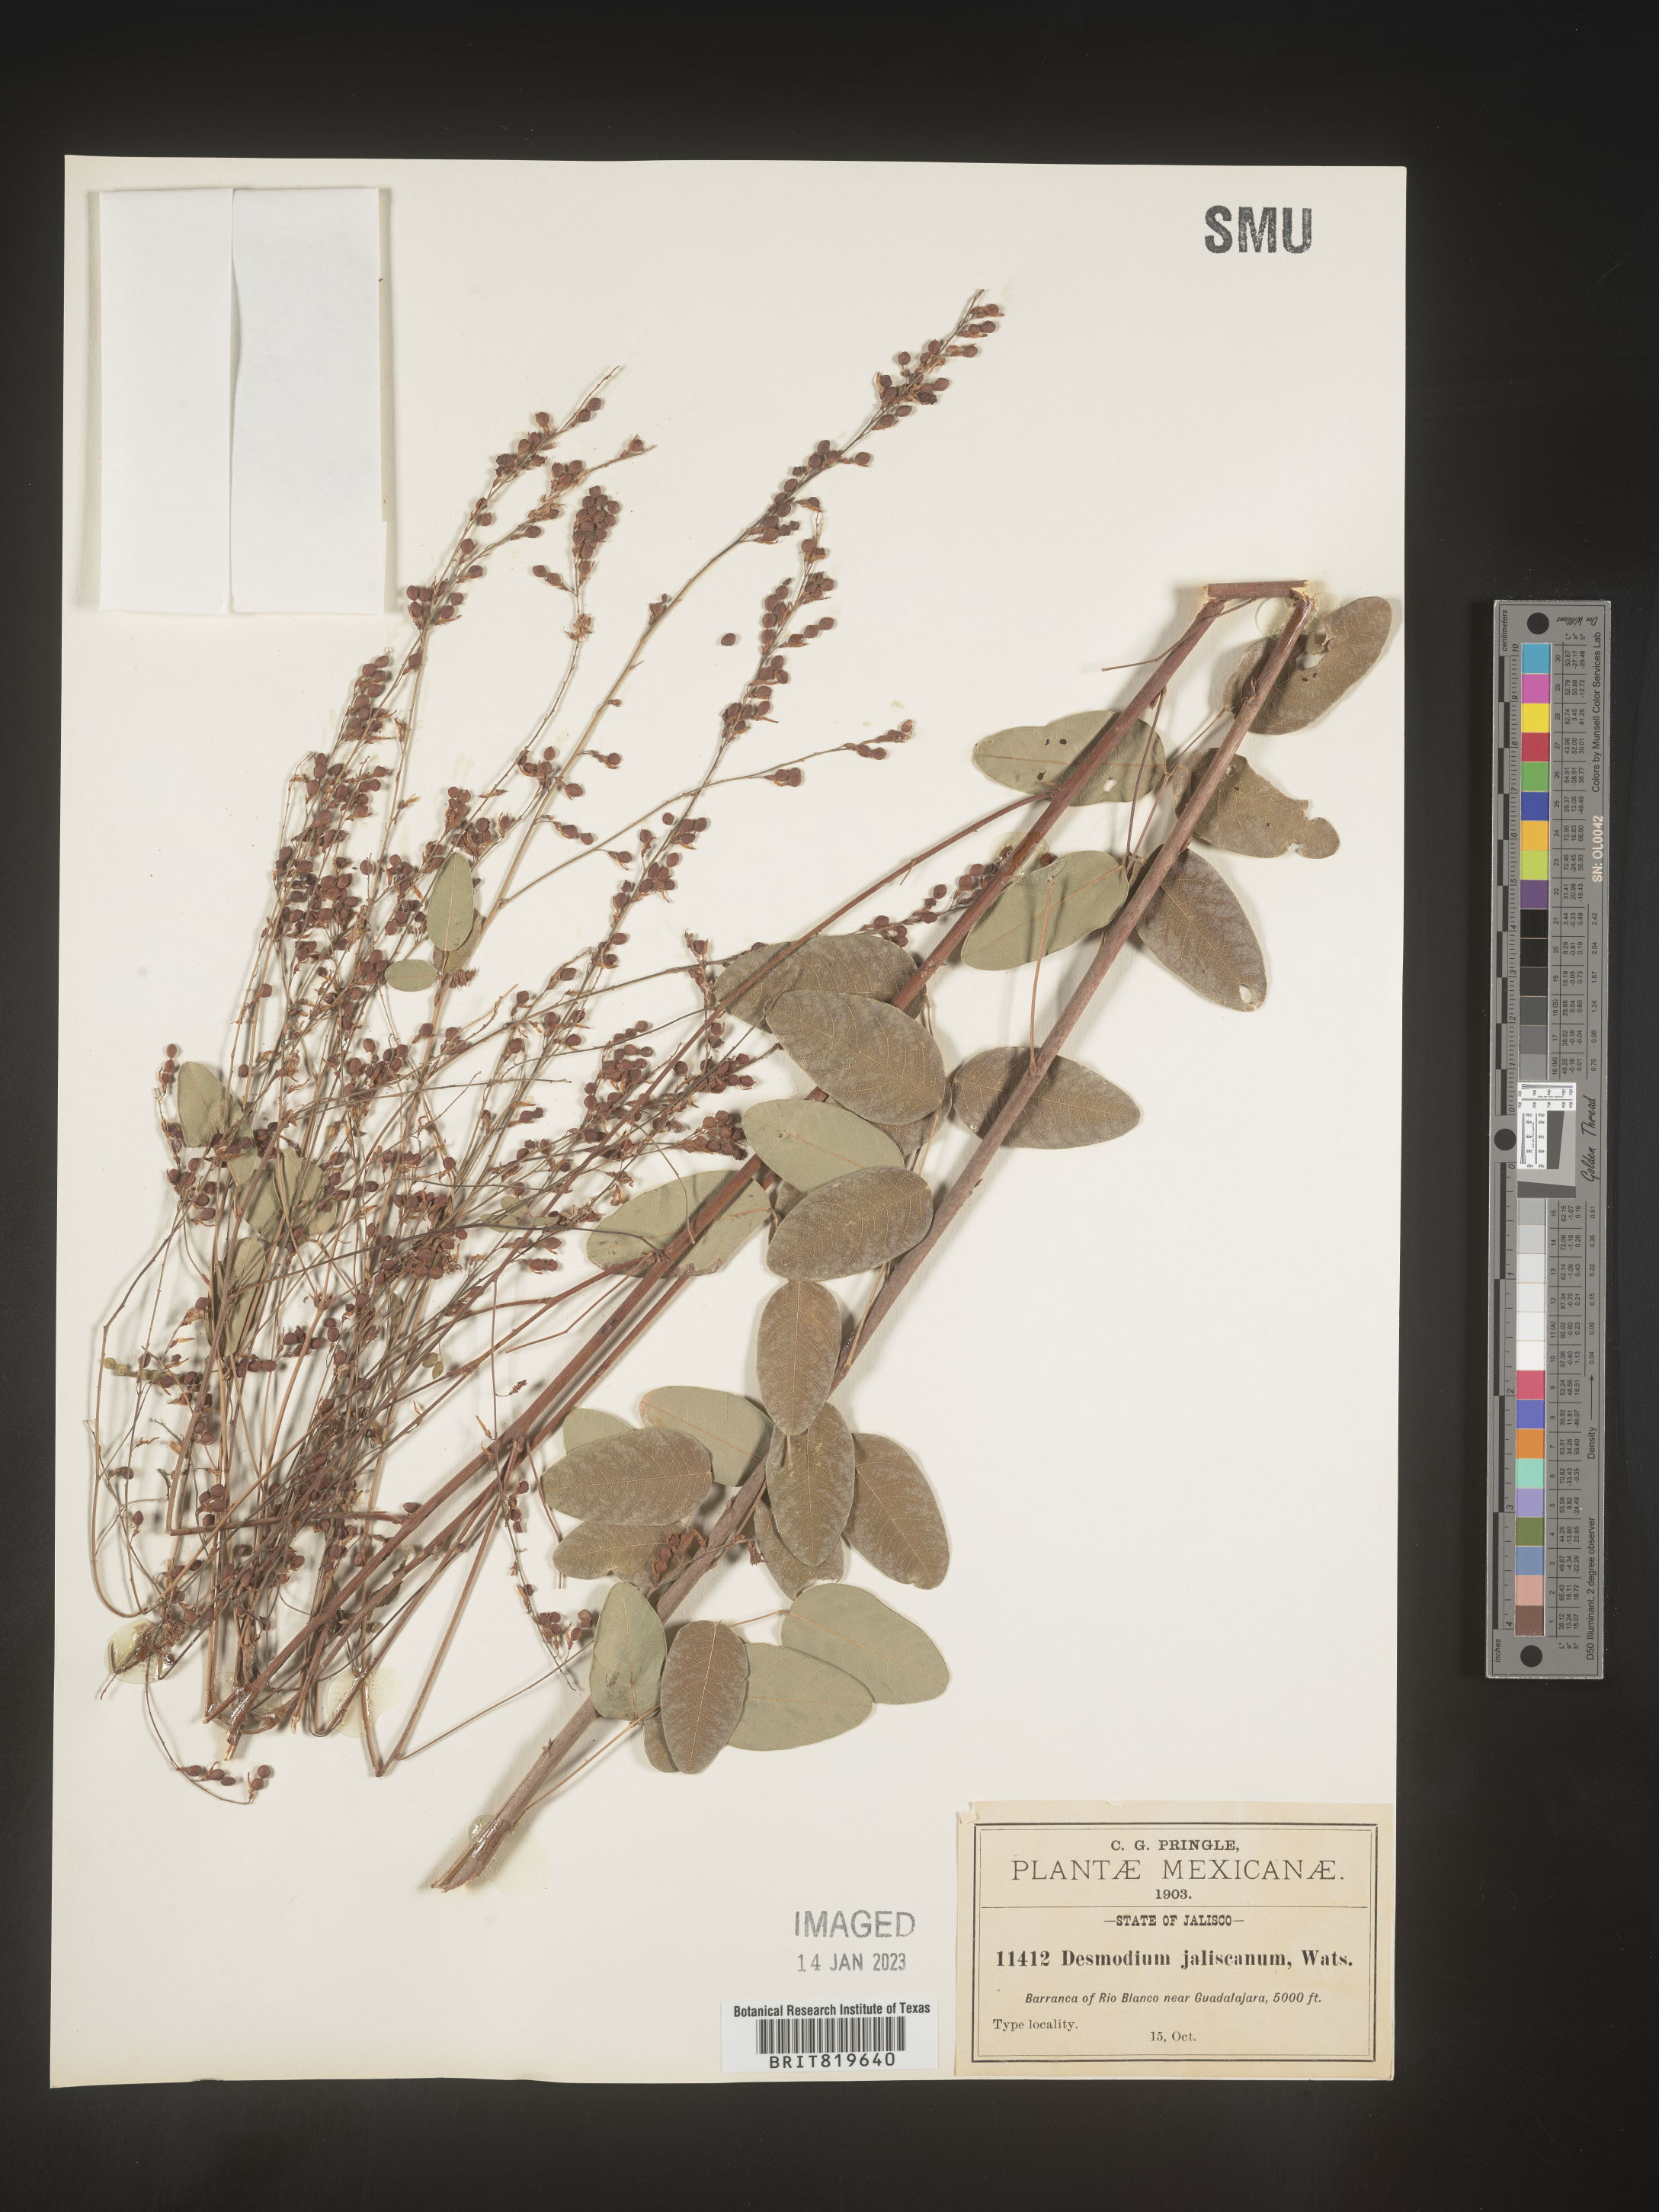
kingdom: Plantae
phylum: Tracheophyta
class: Magnoliopsida
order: Fabales
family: Fabaceae
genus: Desmodium
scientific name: Desmodium
